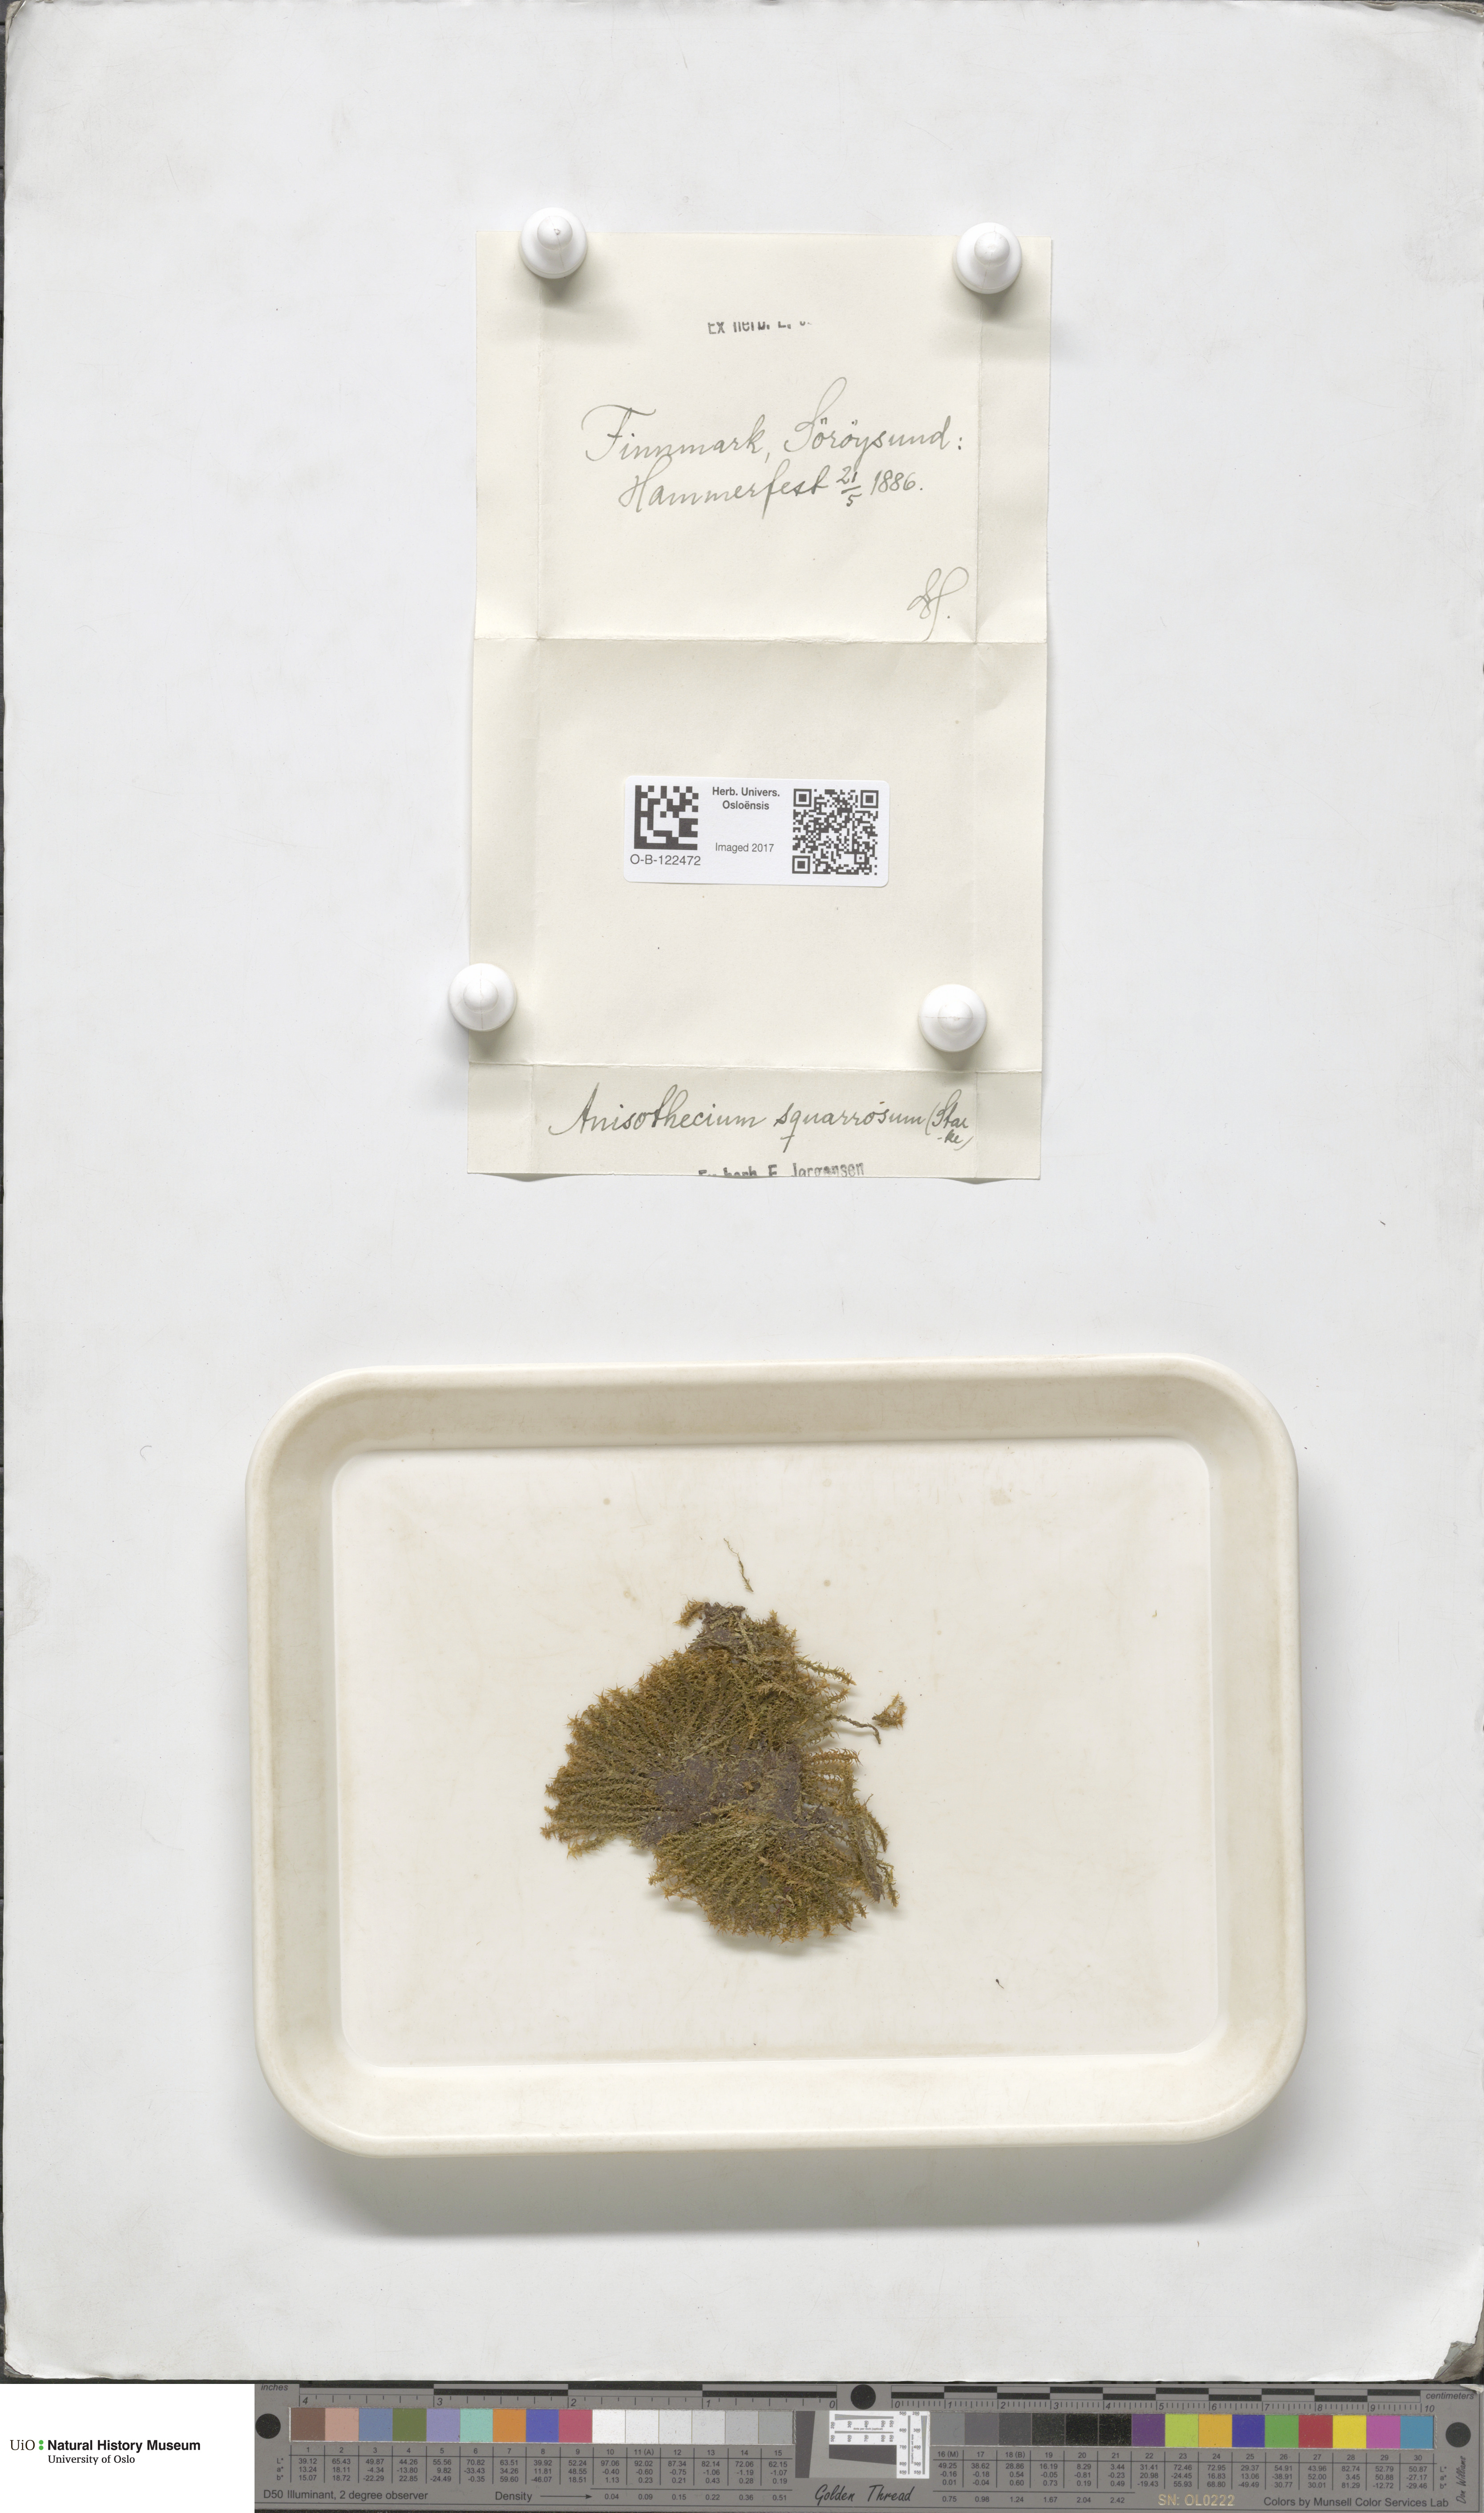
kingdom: Plantae
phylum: Bryophyta
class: Bryopsida
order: Dicranales
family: Aongstroemiaceae
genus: Diobelonella
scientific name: Diobelonella palustris
